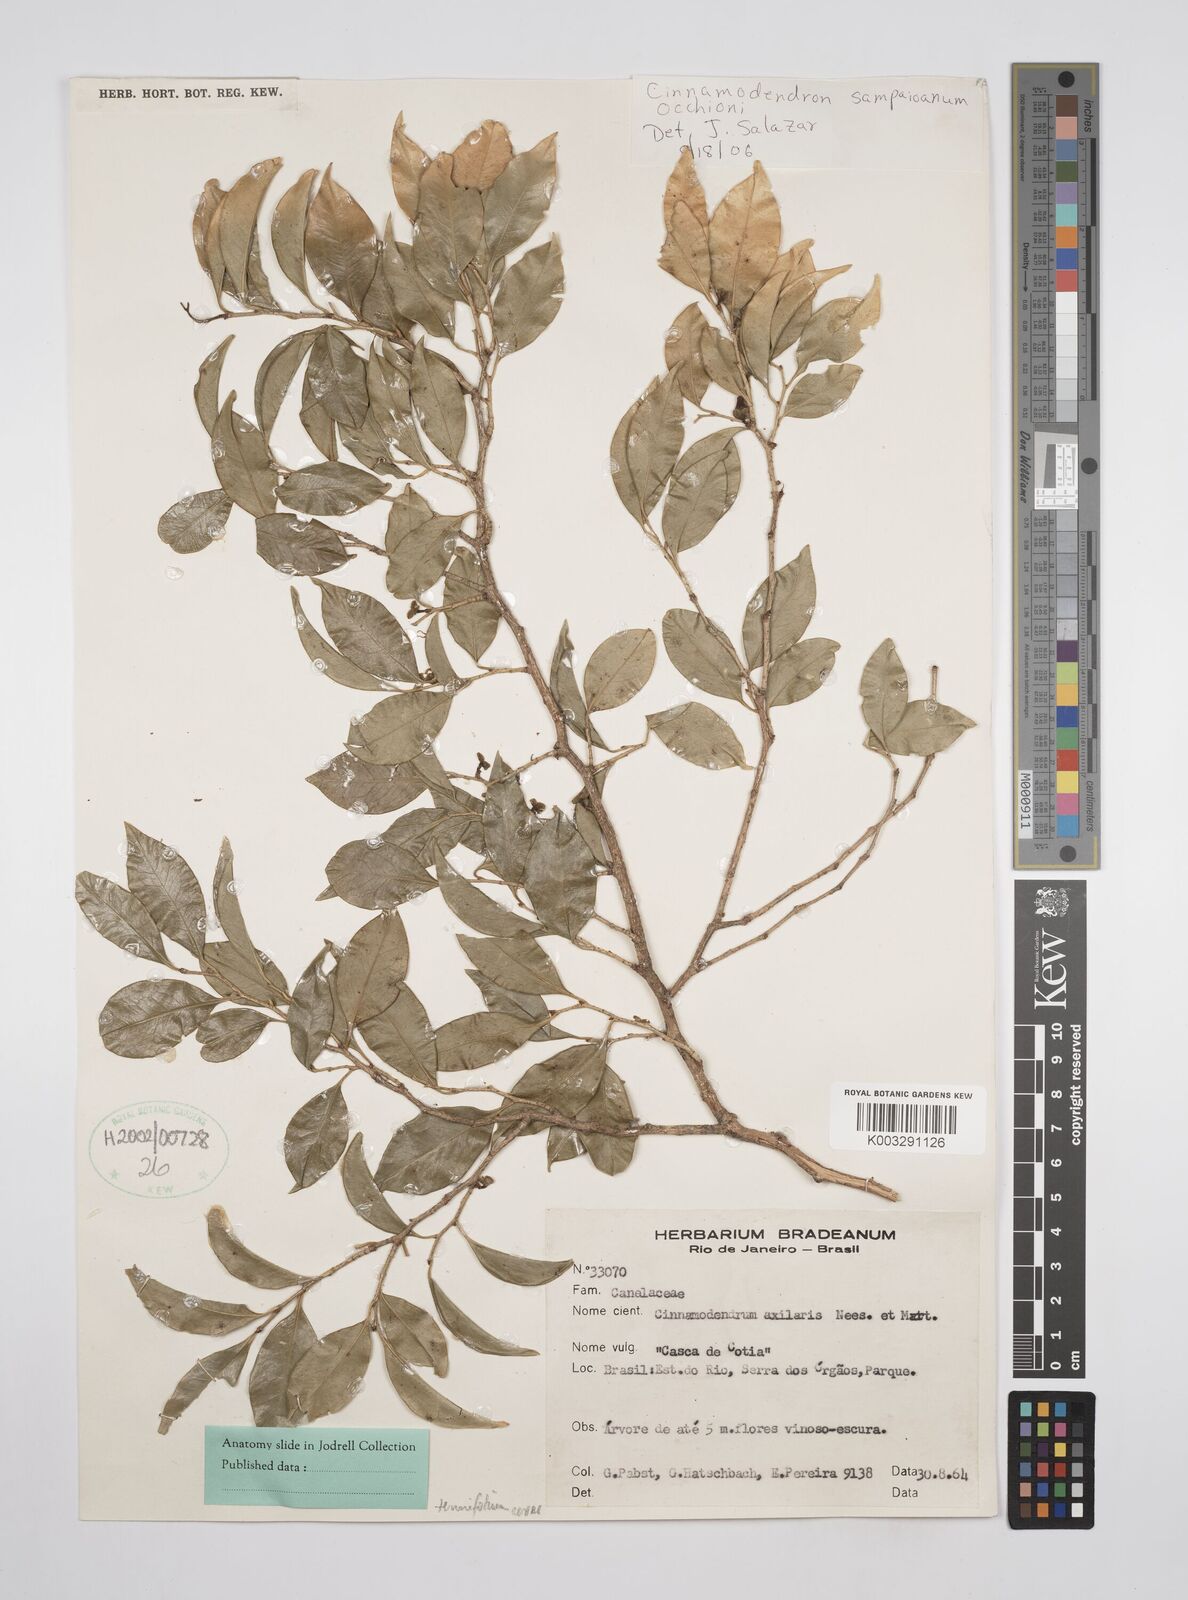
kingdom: Plantae
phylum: Tracheophyta
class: Magnoliopsida
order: Canellales
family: Canellaceae
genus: Cinnamodendron
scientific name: Cinnamodendron axillare
